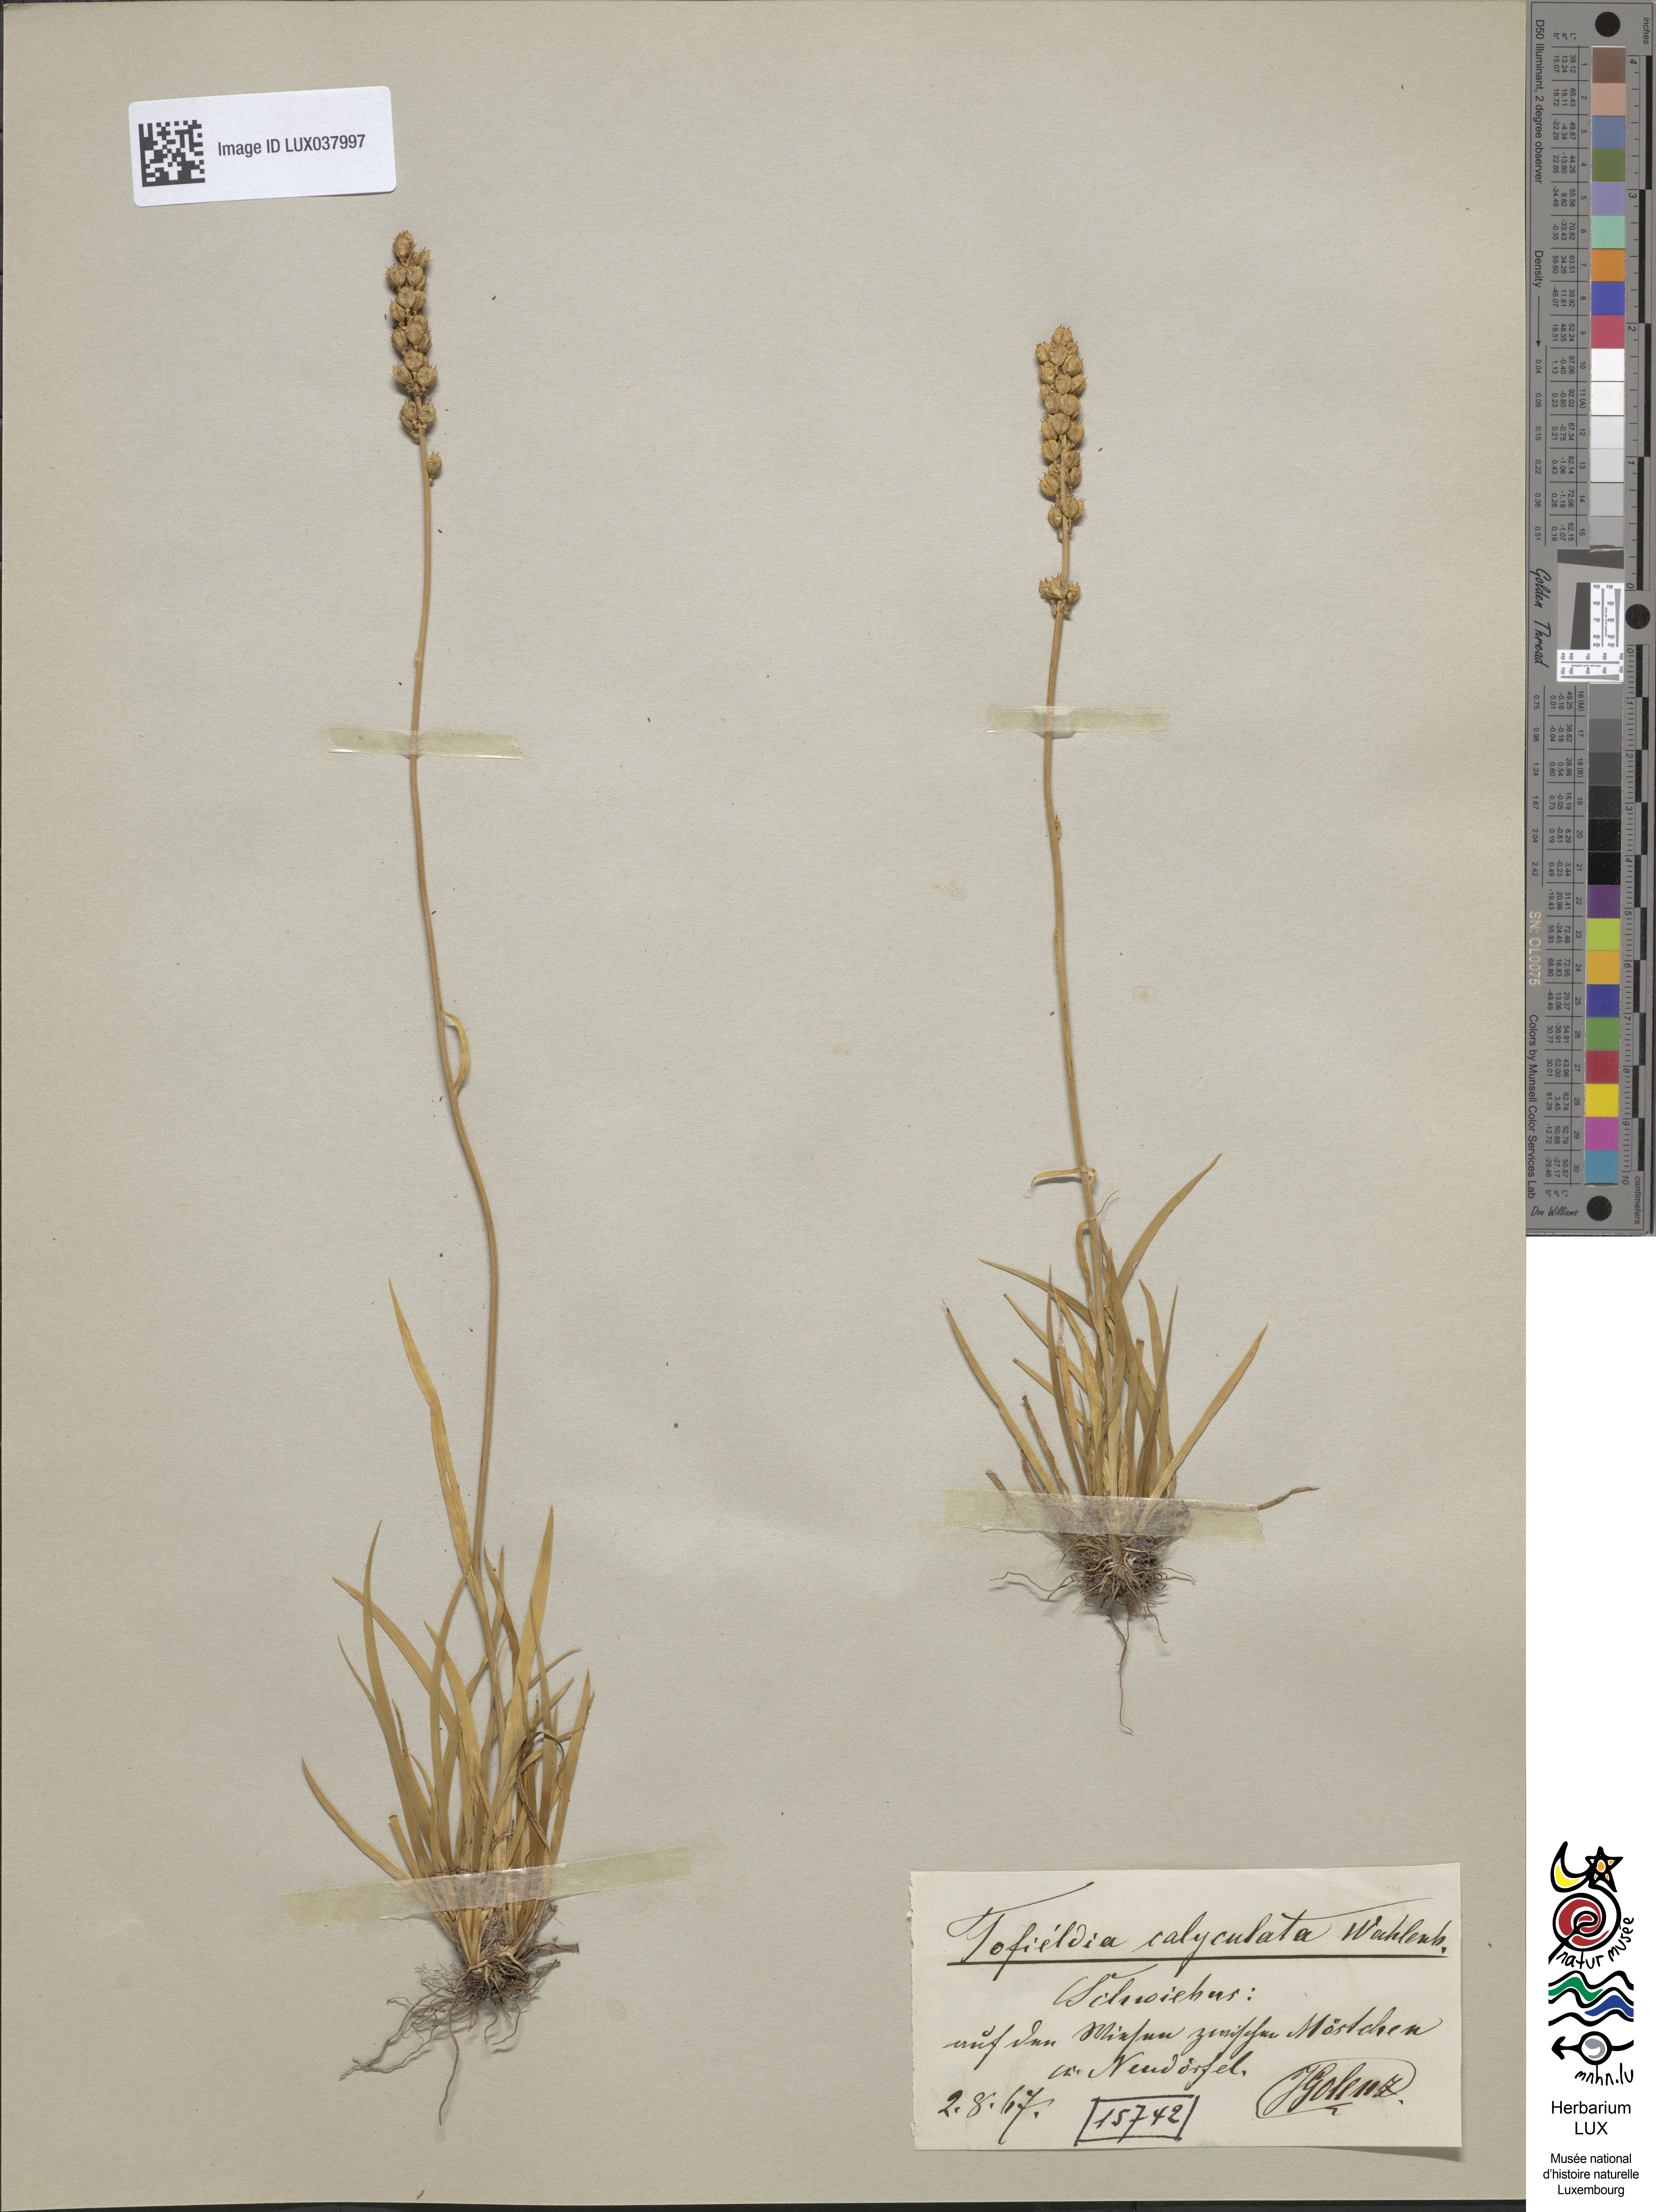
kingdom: Plantae
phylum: Tracheophyta
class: Liliopsida
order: Alismatales
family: Tofieldiaceae
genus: Tofieldia
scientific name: Tofieldia calyculata
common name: German-asphodel
